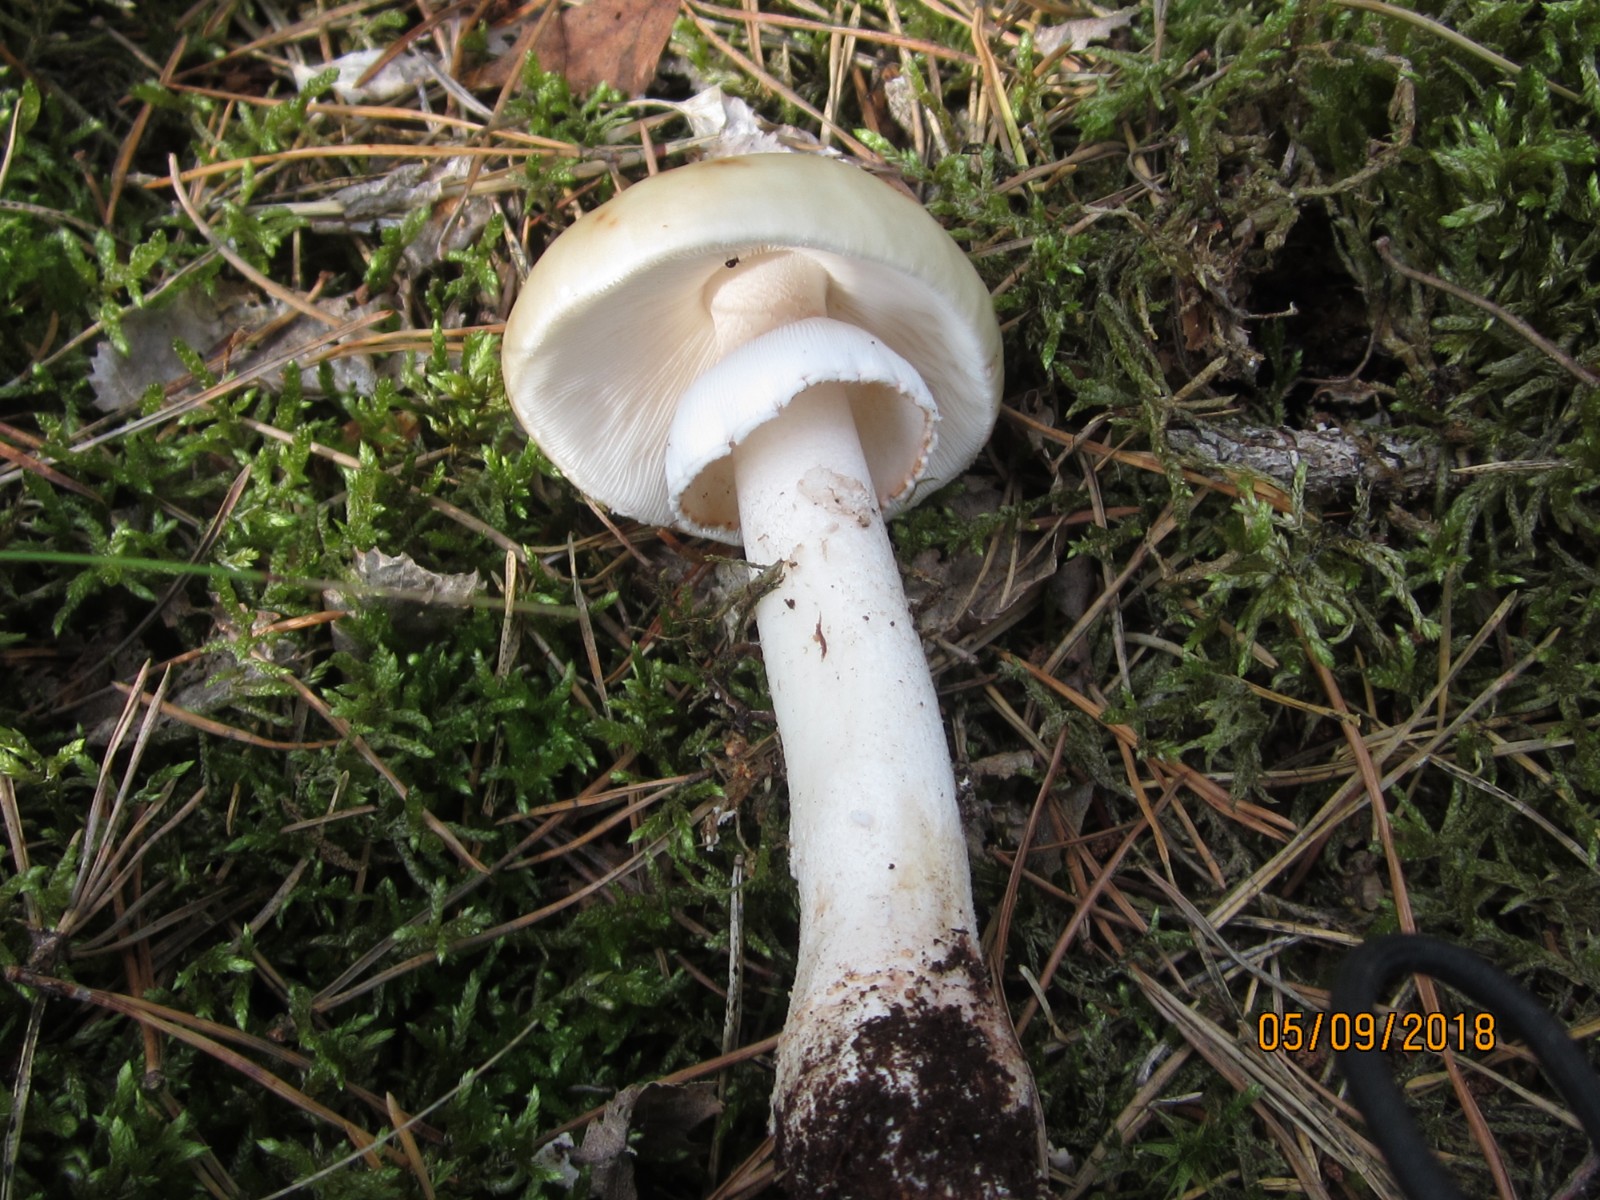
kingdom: Fungi
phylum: Basidiomycota
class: Agaricomycetes
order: Agaricales
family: Amanitaceae
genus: Amanita
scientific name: Amanita rubescens
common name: rødmende fluesvamp
